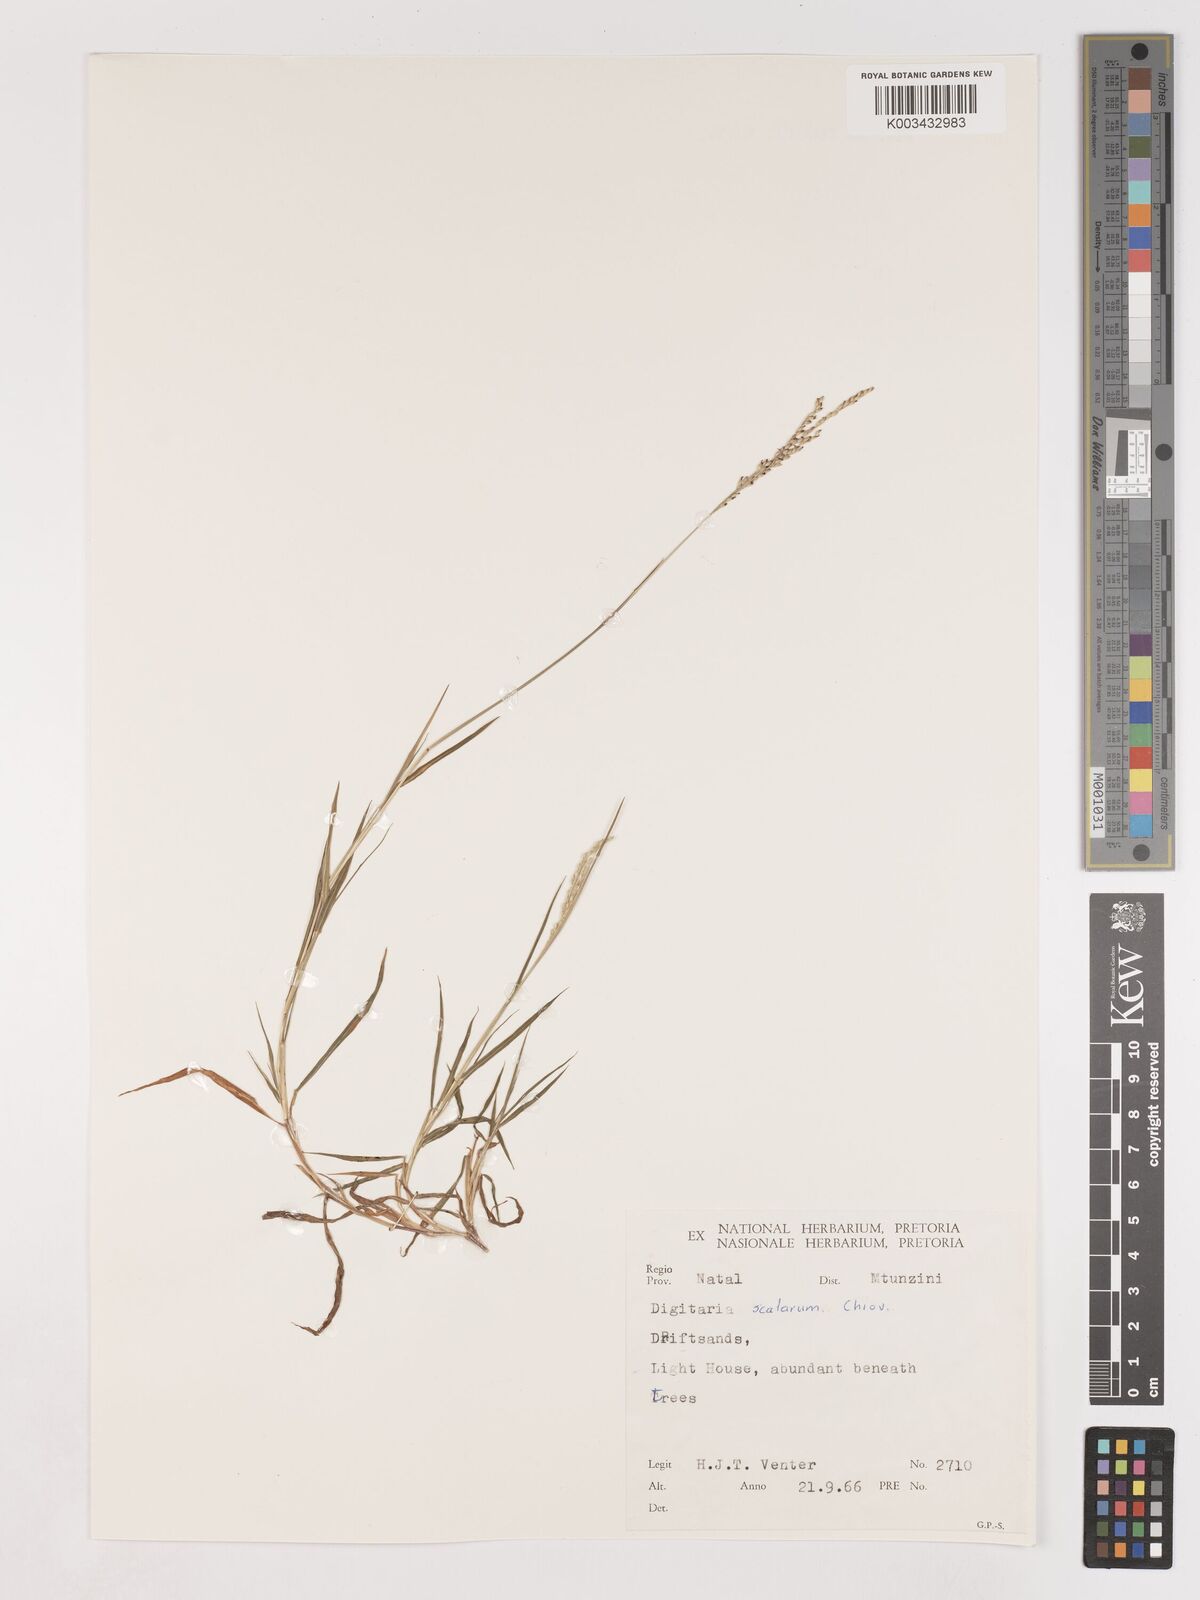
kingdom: Plantae
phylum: Tracheophyta
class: Liliopsida
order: Poales
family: Poaceae
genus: Digitaria
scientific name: Digitaria abyssinica
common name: African couchgrass
